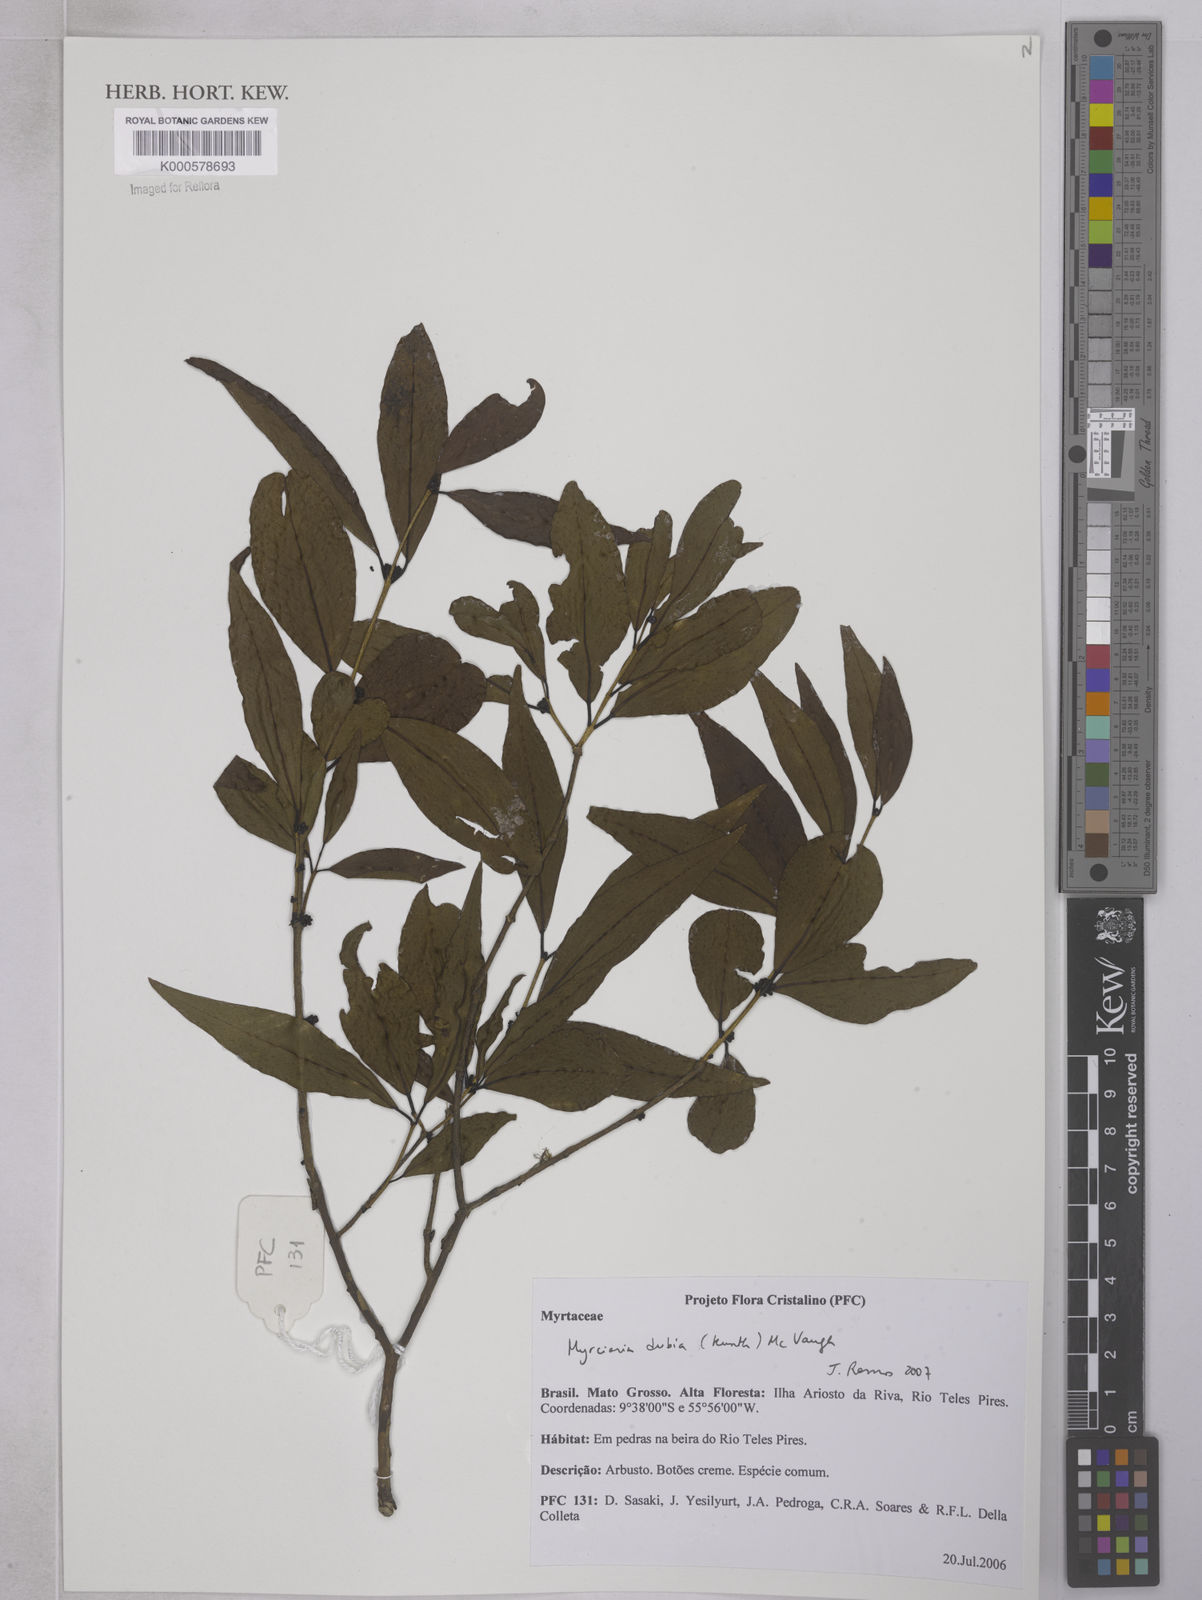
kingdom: Plantae
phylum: Tracheophyta
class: Magnoliopsida
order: Myrtales
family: Myrtaceae
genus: Myrciaria
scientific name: Myrciaria dubia
